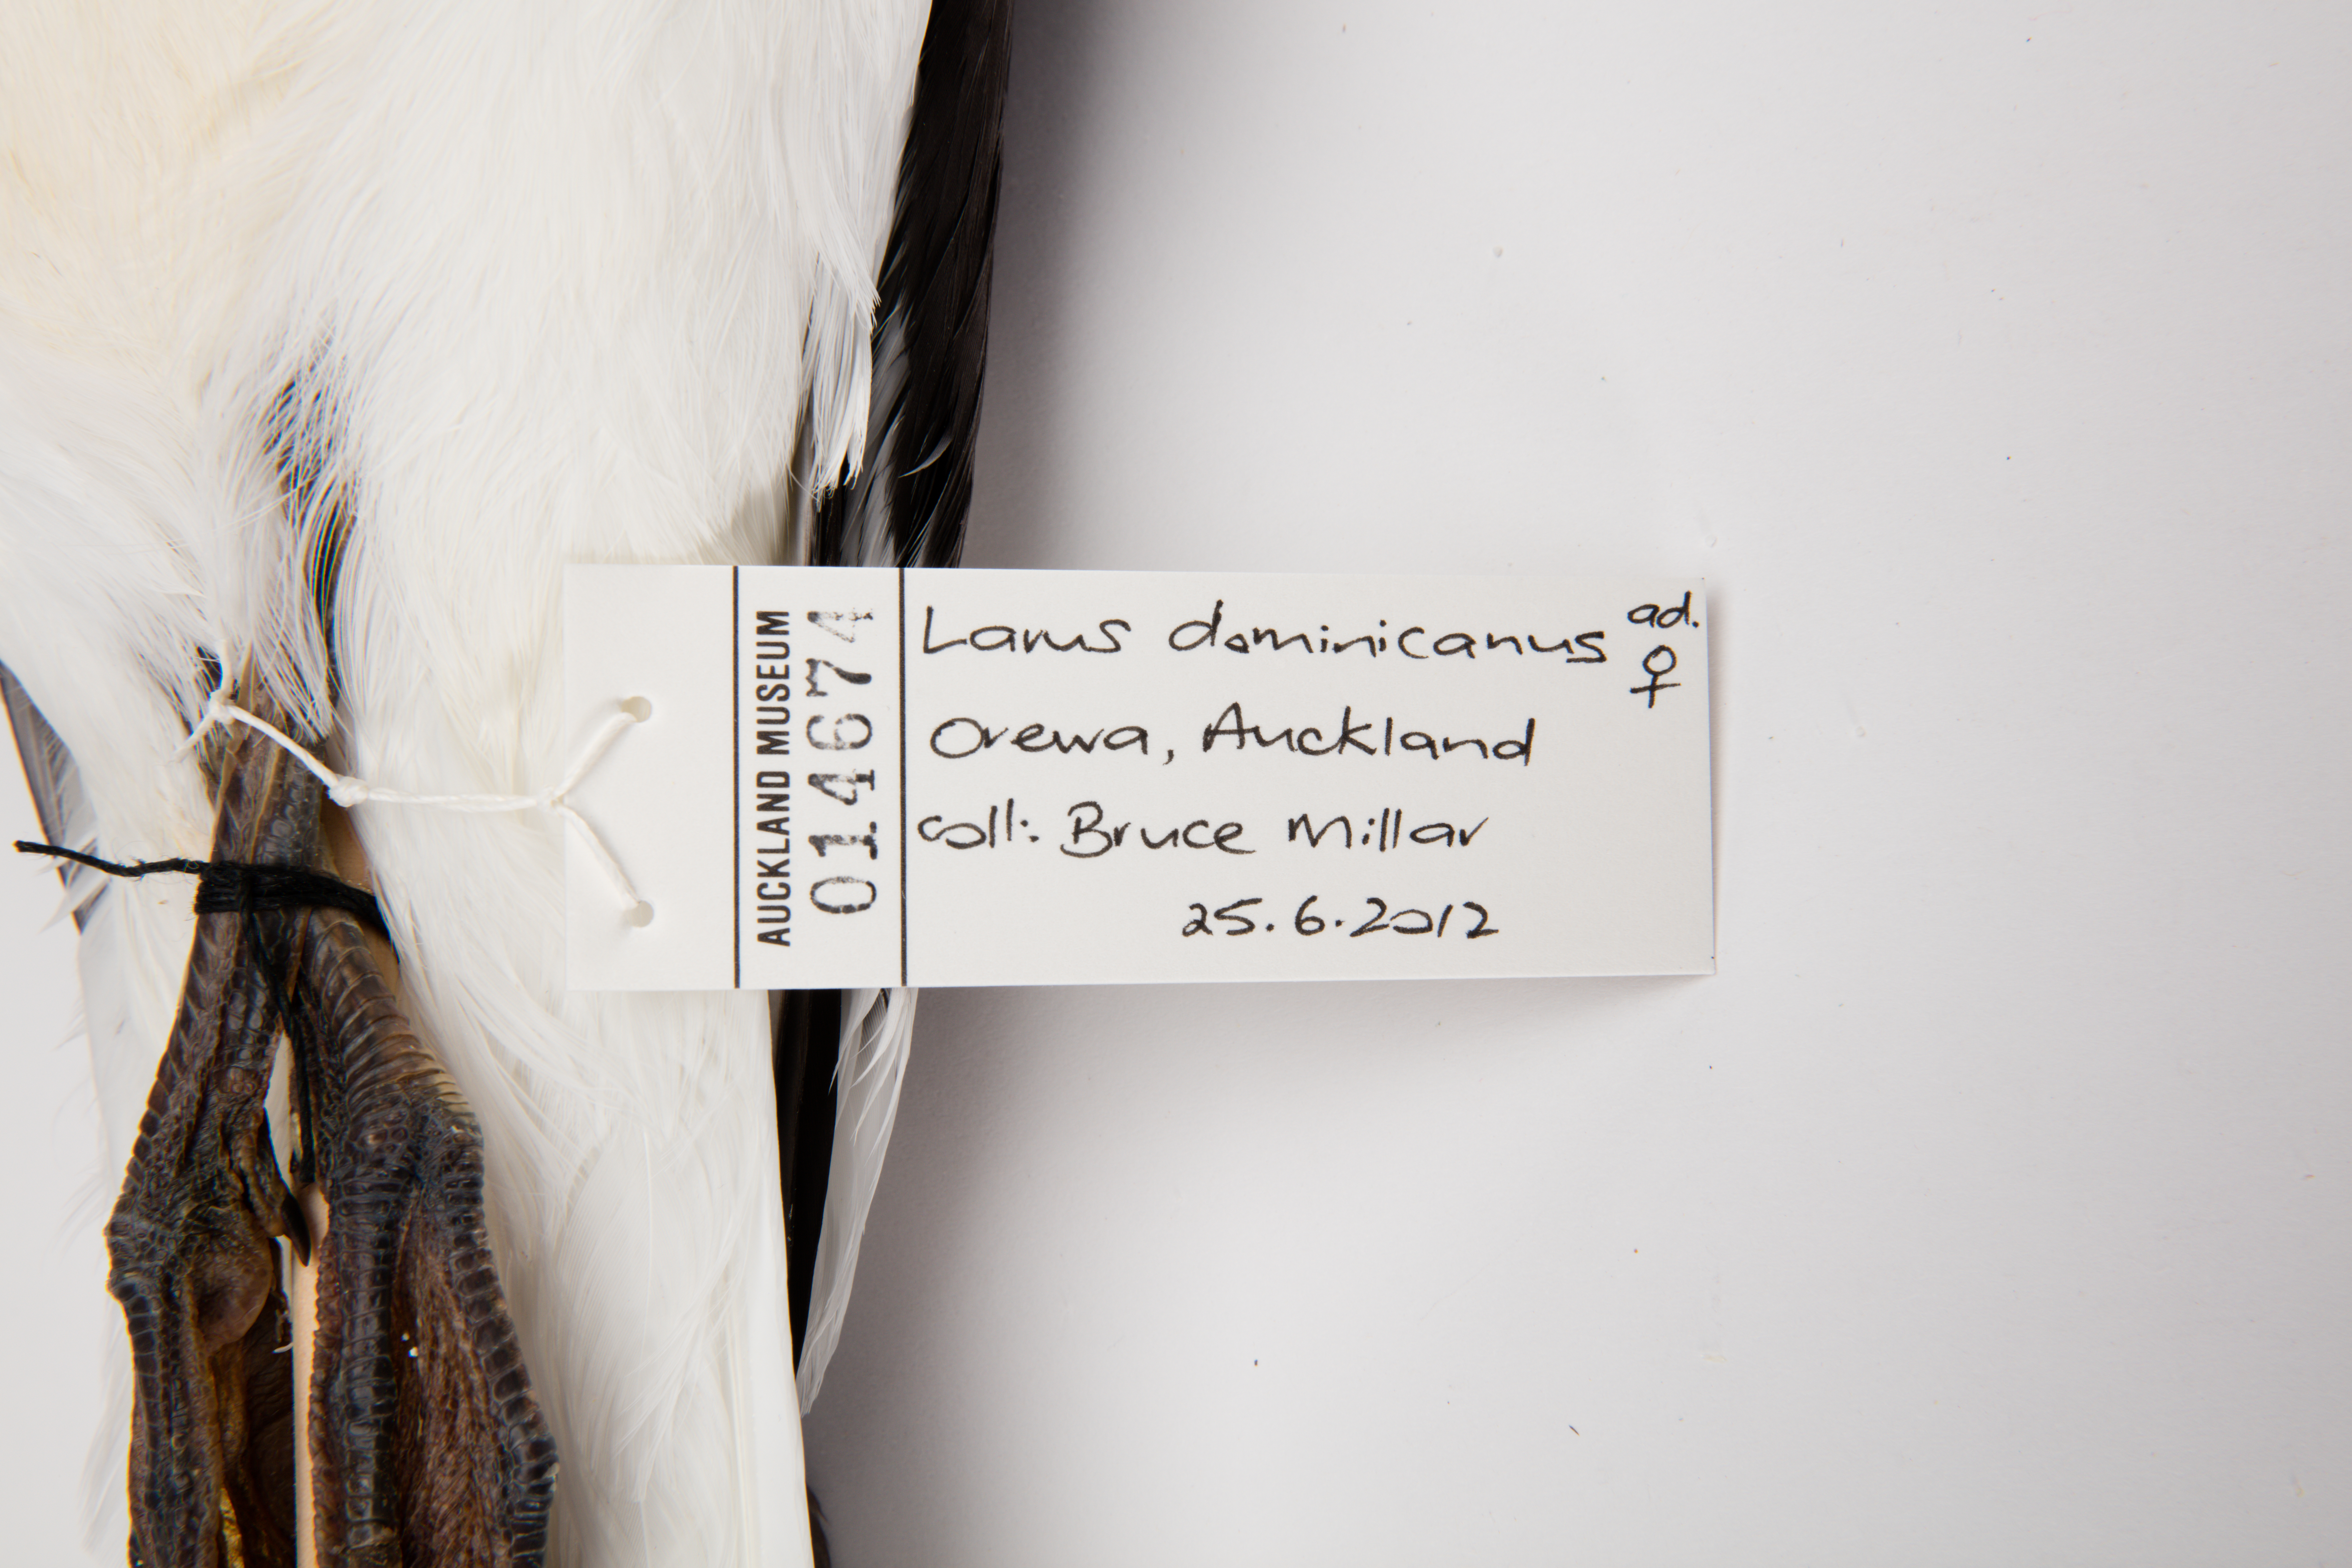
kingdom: Animalia
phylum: Chordata
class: Aves
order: Charadriiformes
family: Laridae
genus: Larus
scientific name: Larus dominicanus
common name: Kelp gull
